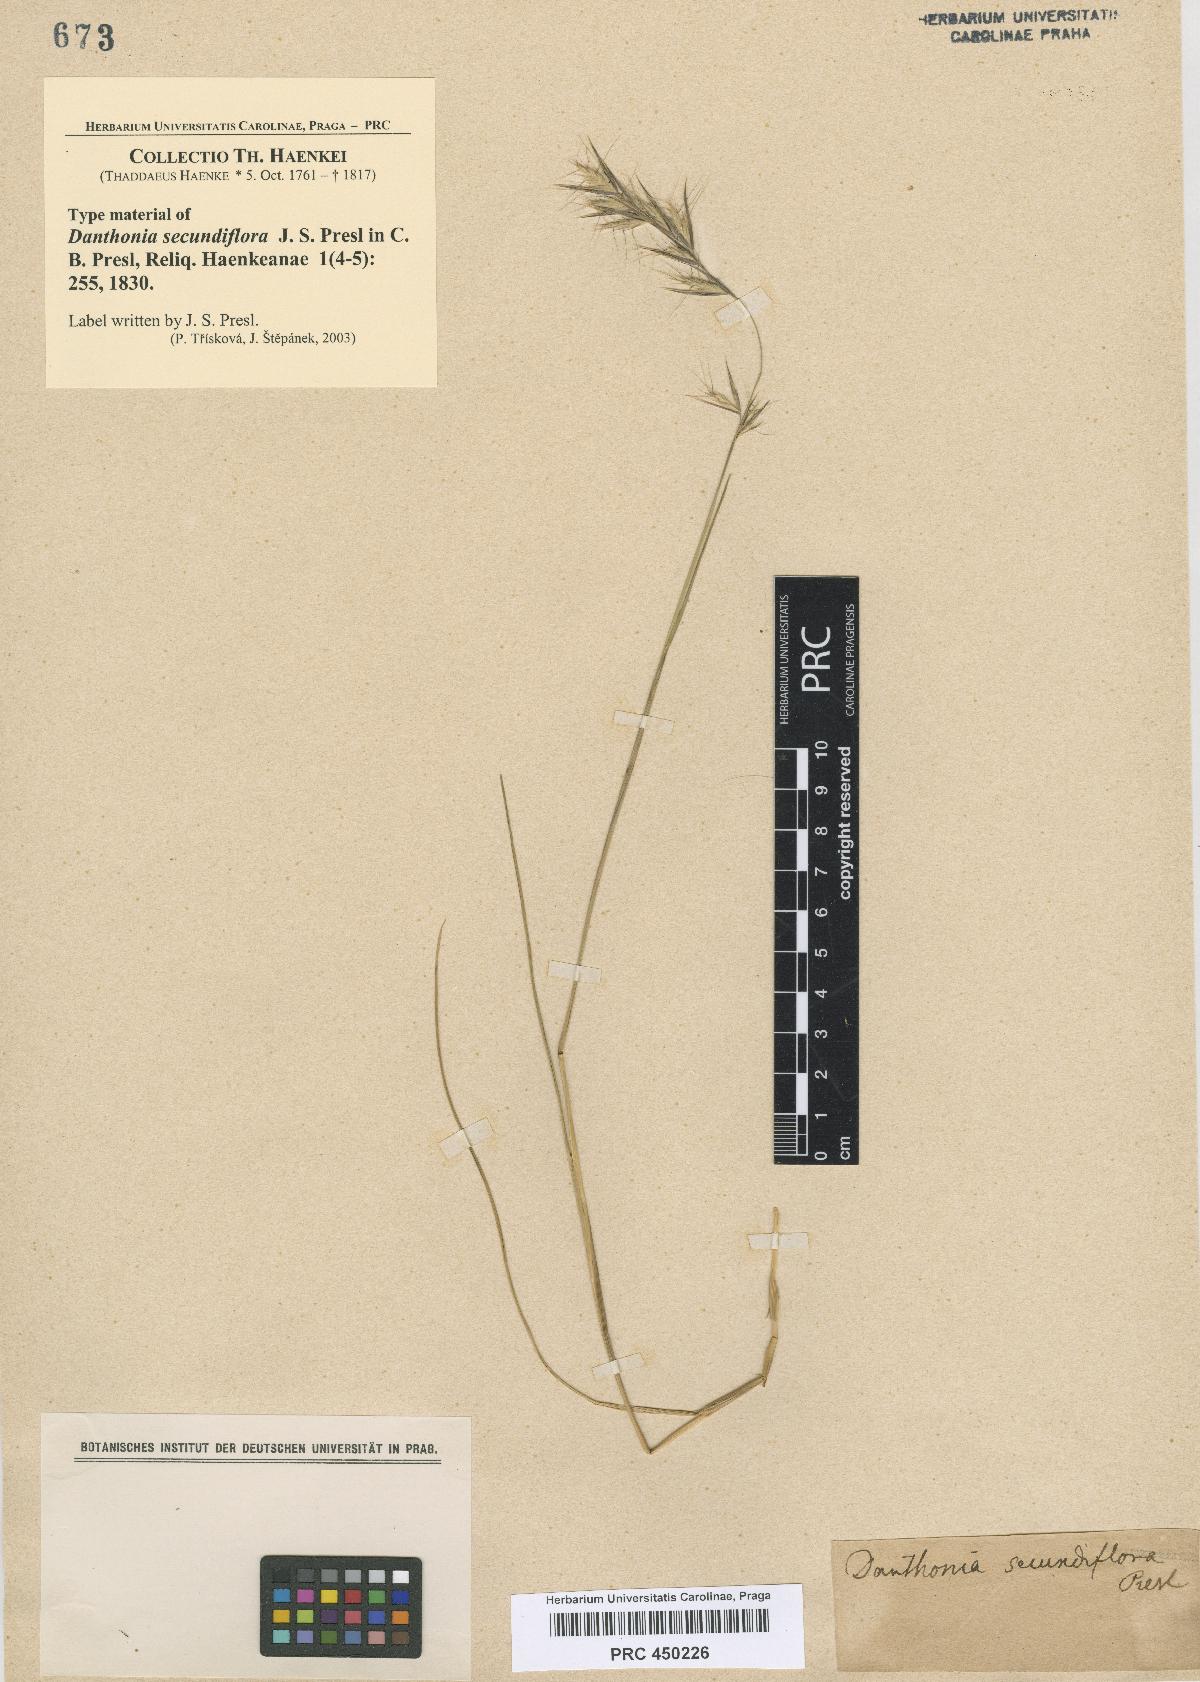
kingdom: Plantae
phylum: Tracheophyta
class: Liliopsida
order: Poales
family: Poaceae
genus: Danthonia
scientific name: Danthonia secundiflora
